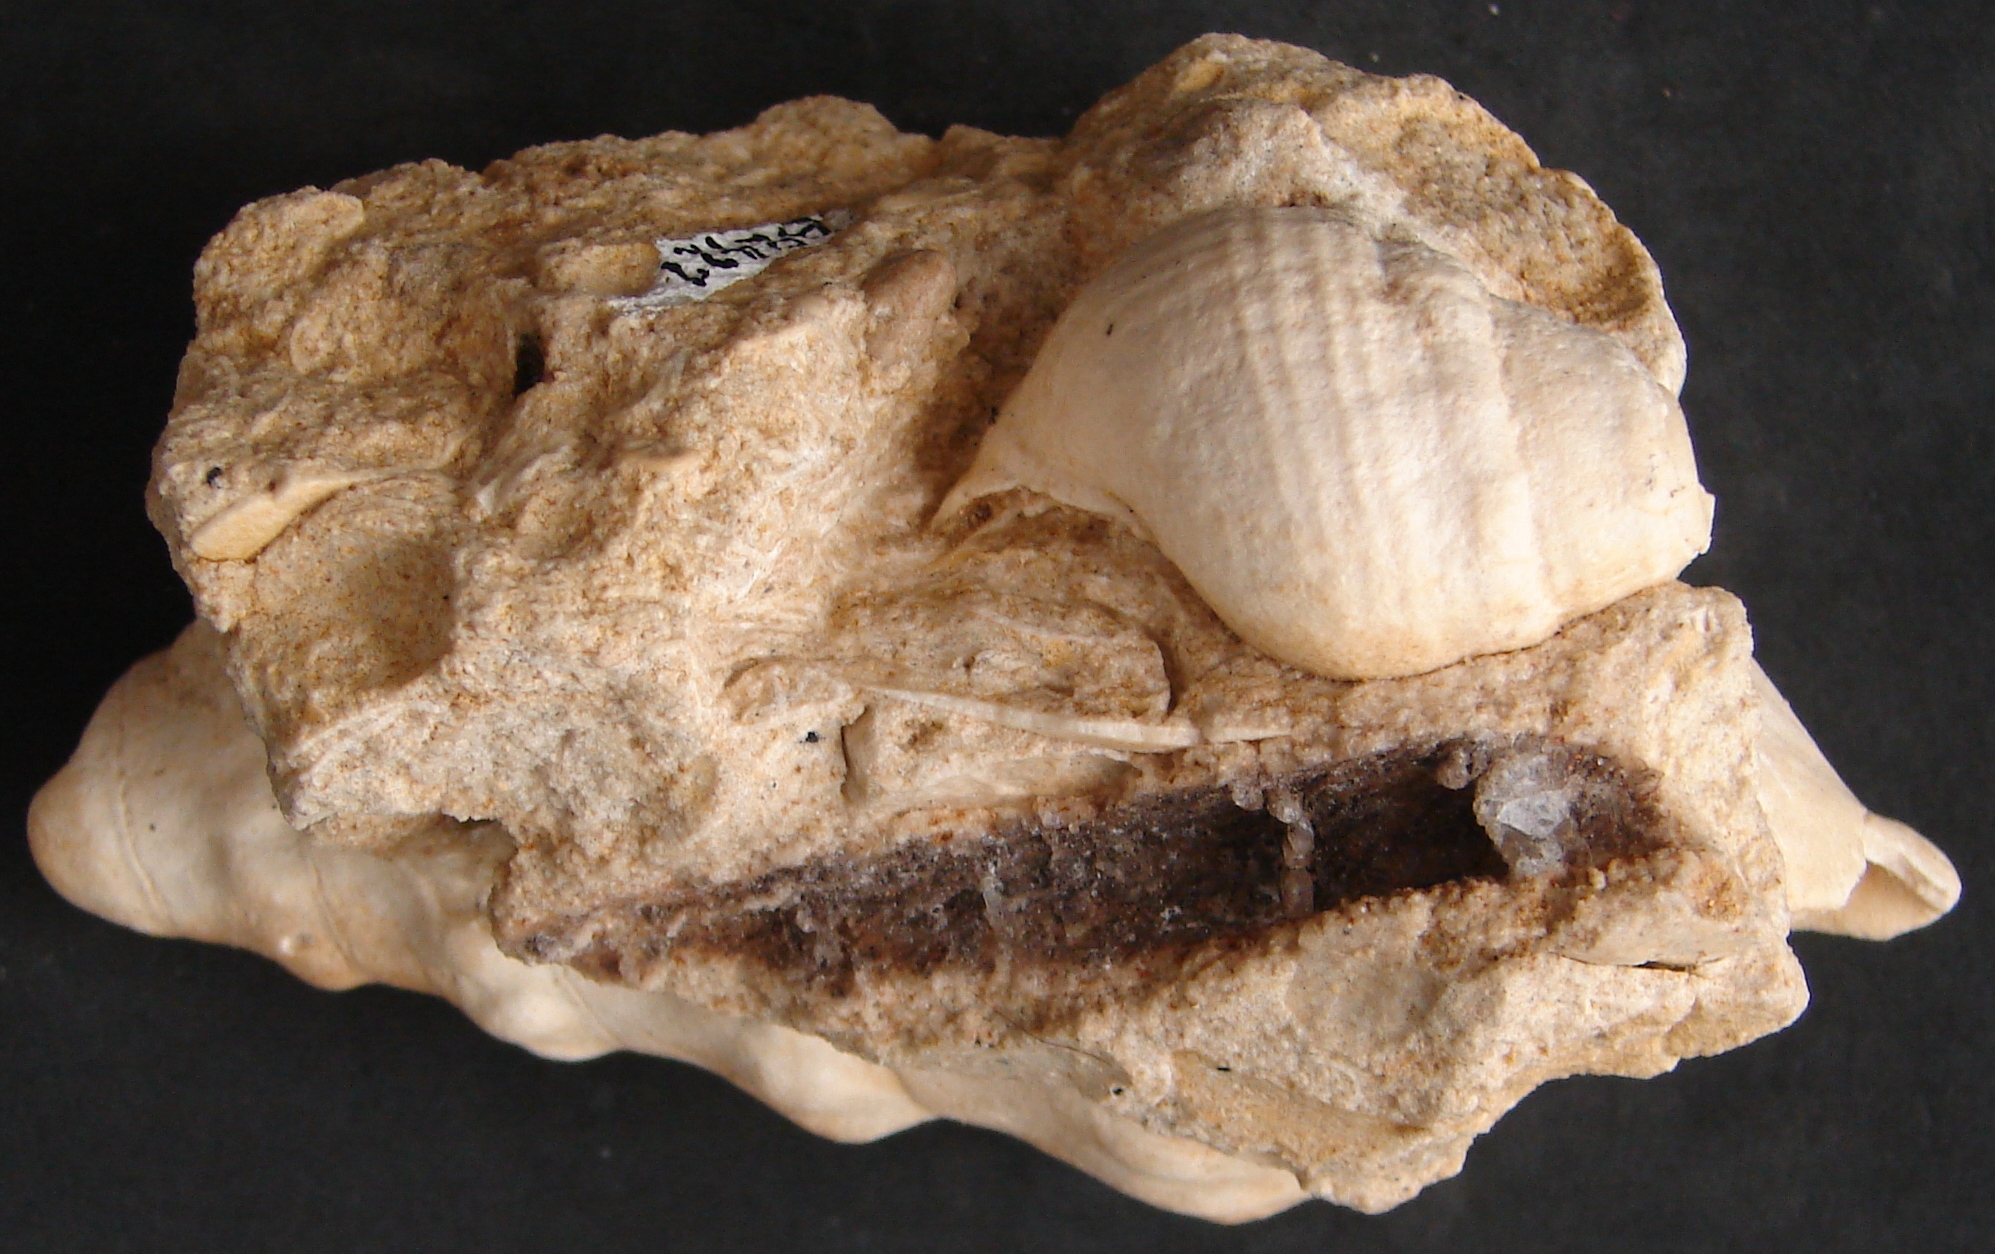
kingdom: Animalia
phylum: Mollusca
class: Gastropoda
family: Zygopleuridae
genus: Zygopleura
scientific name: Zygopleura Cerithium verrucosa
